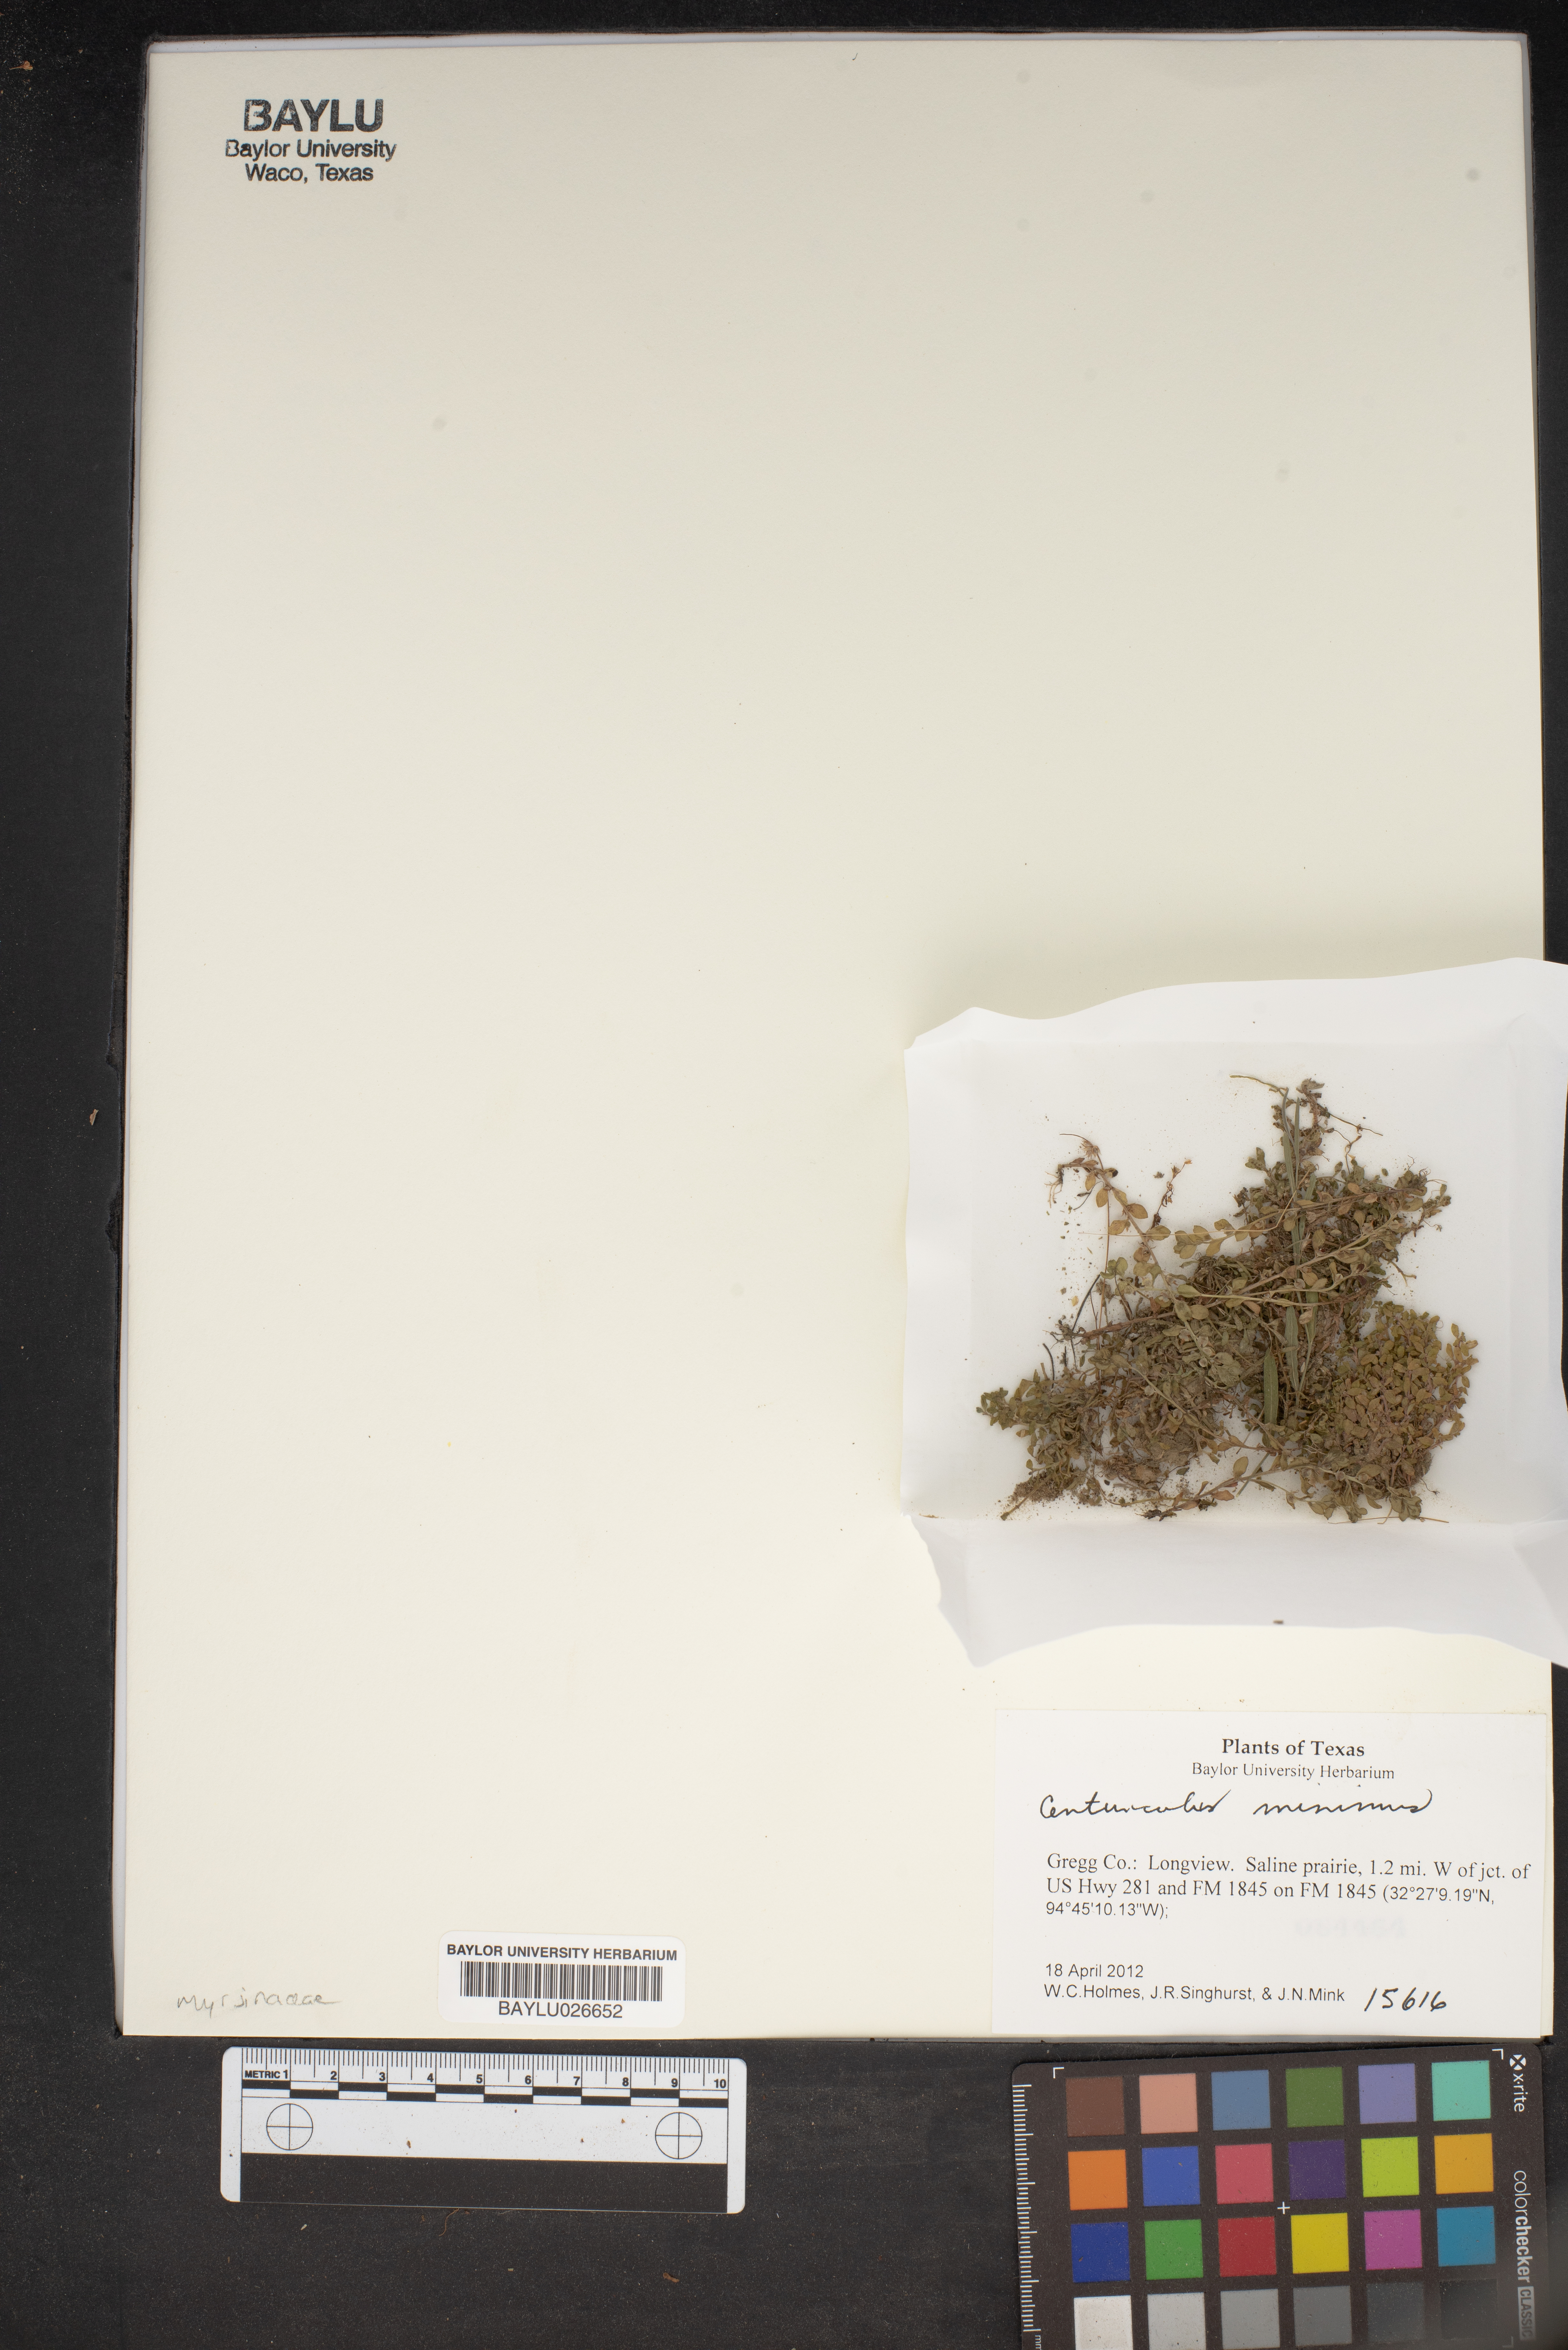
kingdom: Plantae
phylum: Tracheophyta
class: Magnoliopsida
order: Ericales
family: Primulaceae
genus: Lysimachia
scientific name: Lysimachia minima
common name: Chaffweed
